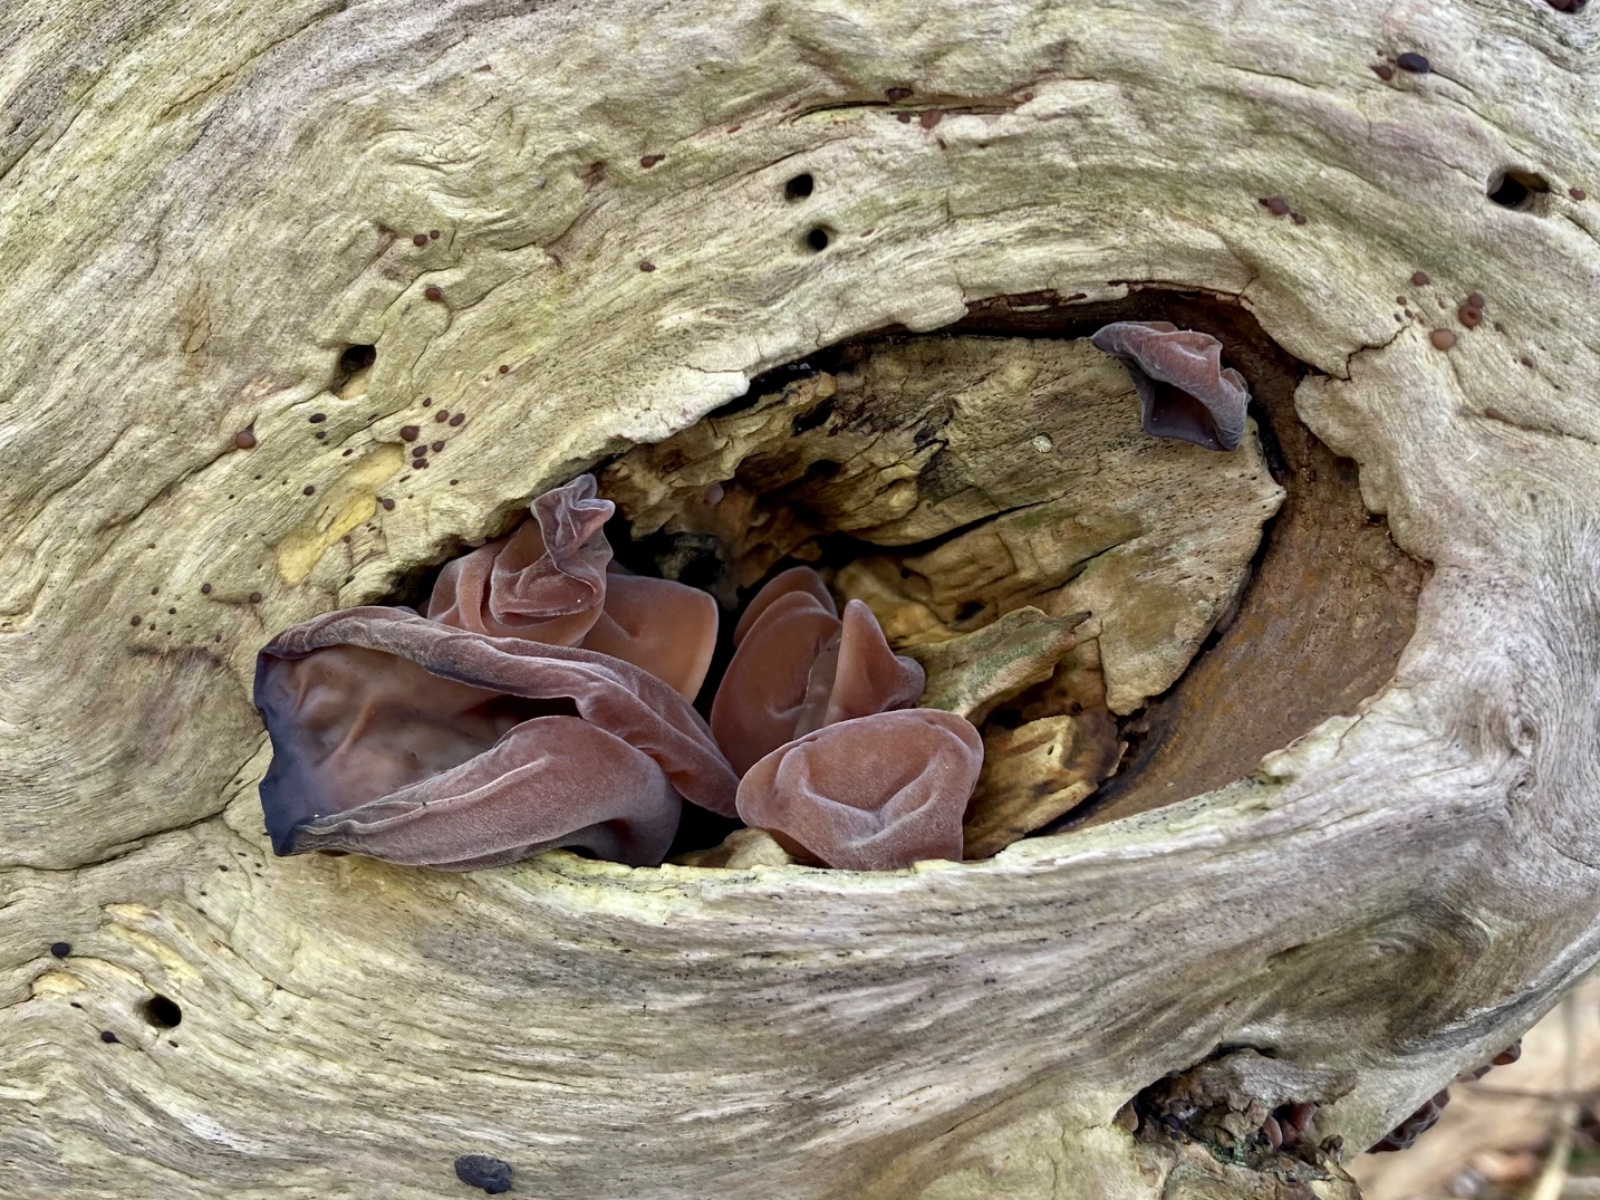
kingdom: Fungi
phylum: Basidiomycota
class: Agaricomycetes
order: Auriculariales
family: Auriculariaceae
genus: Auricularia
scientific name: Auricularia auricula-judae
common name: almindelig judasøre
